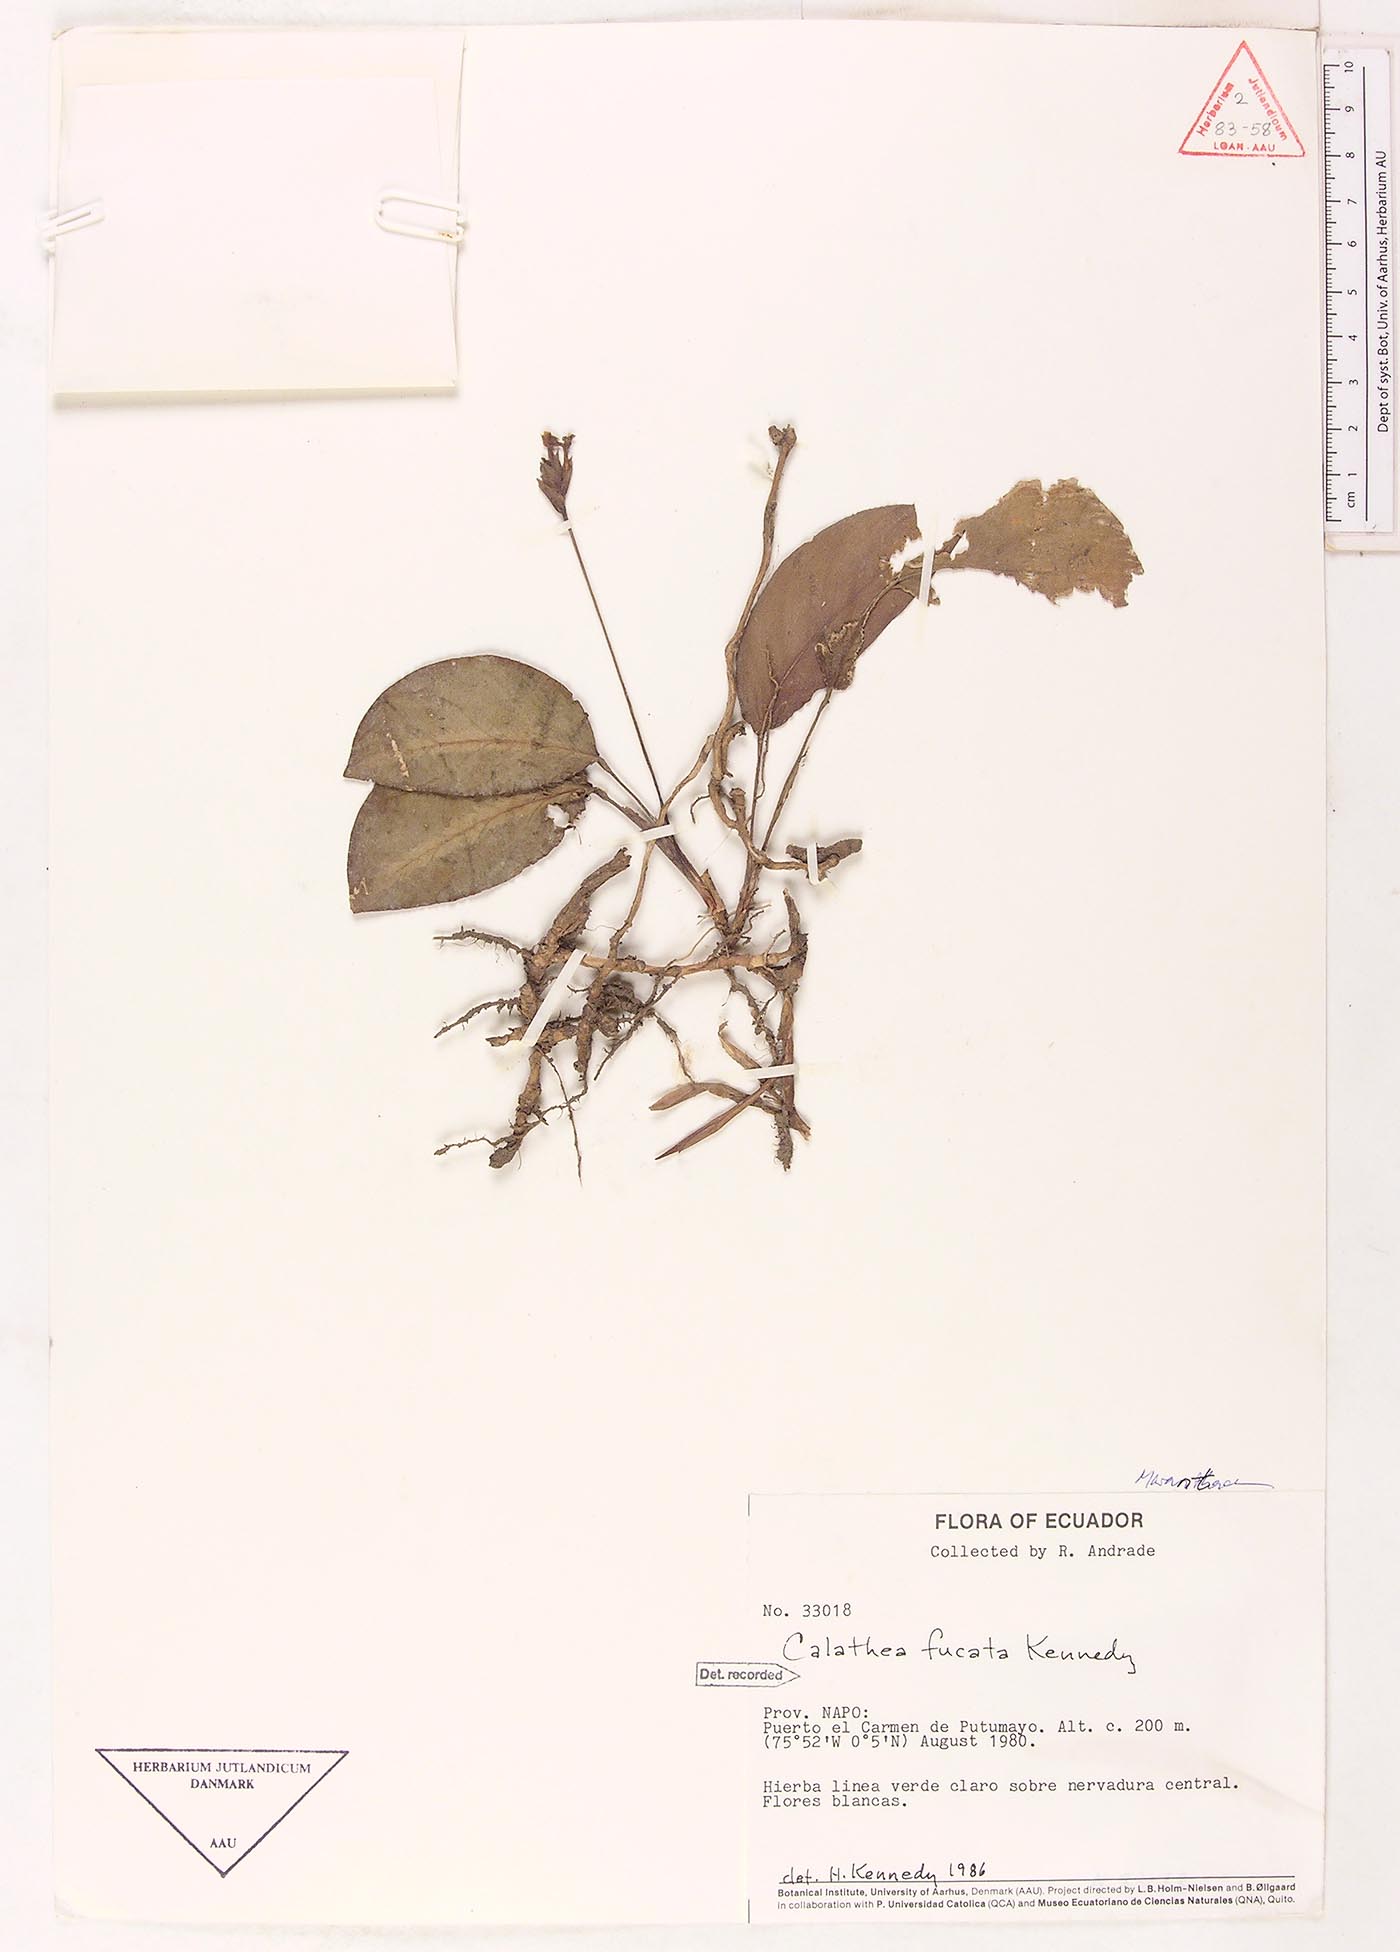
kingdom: Plantae
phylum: Tracheophyta
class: Liliopsida
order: Zingiberales
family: Marantaceae
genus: Goeppertia
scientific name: Goeppertia fucata
